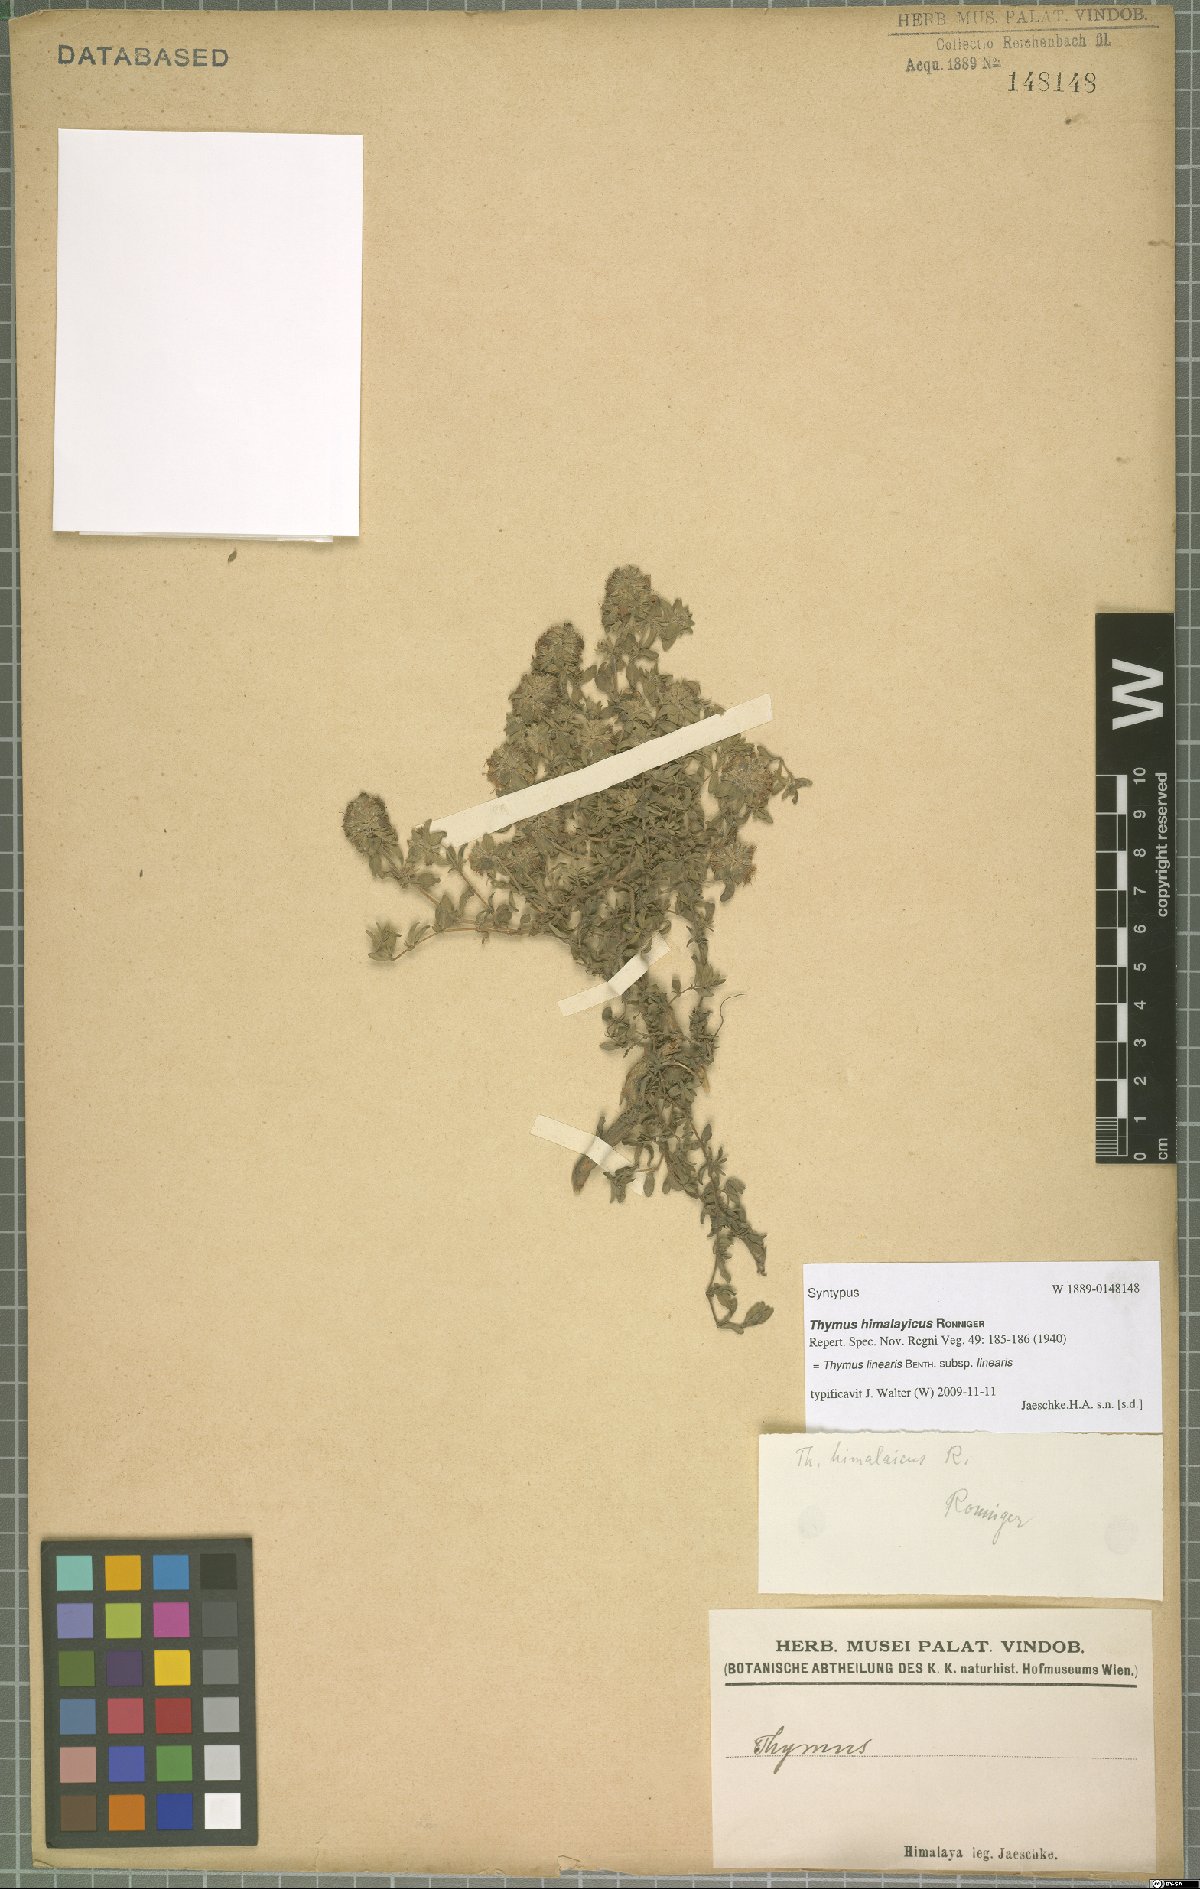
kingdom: Plantae
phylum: Tracheophyta
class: Magnoliopsida
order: Lamiales
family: Lamiaceae
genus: Thymus
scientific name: Thymus linearis
